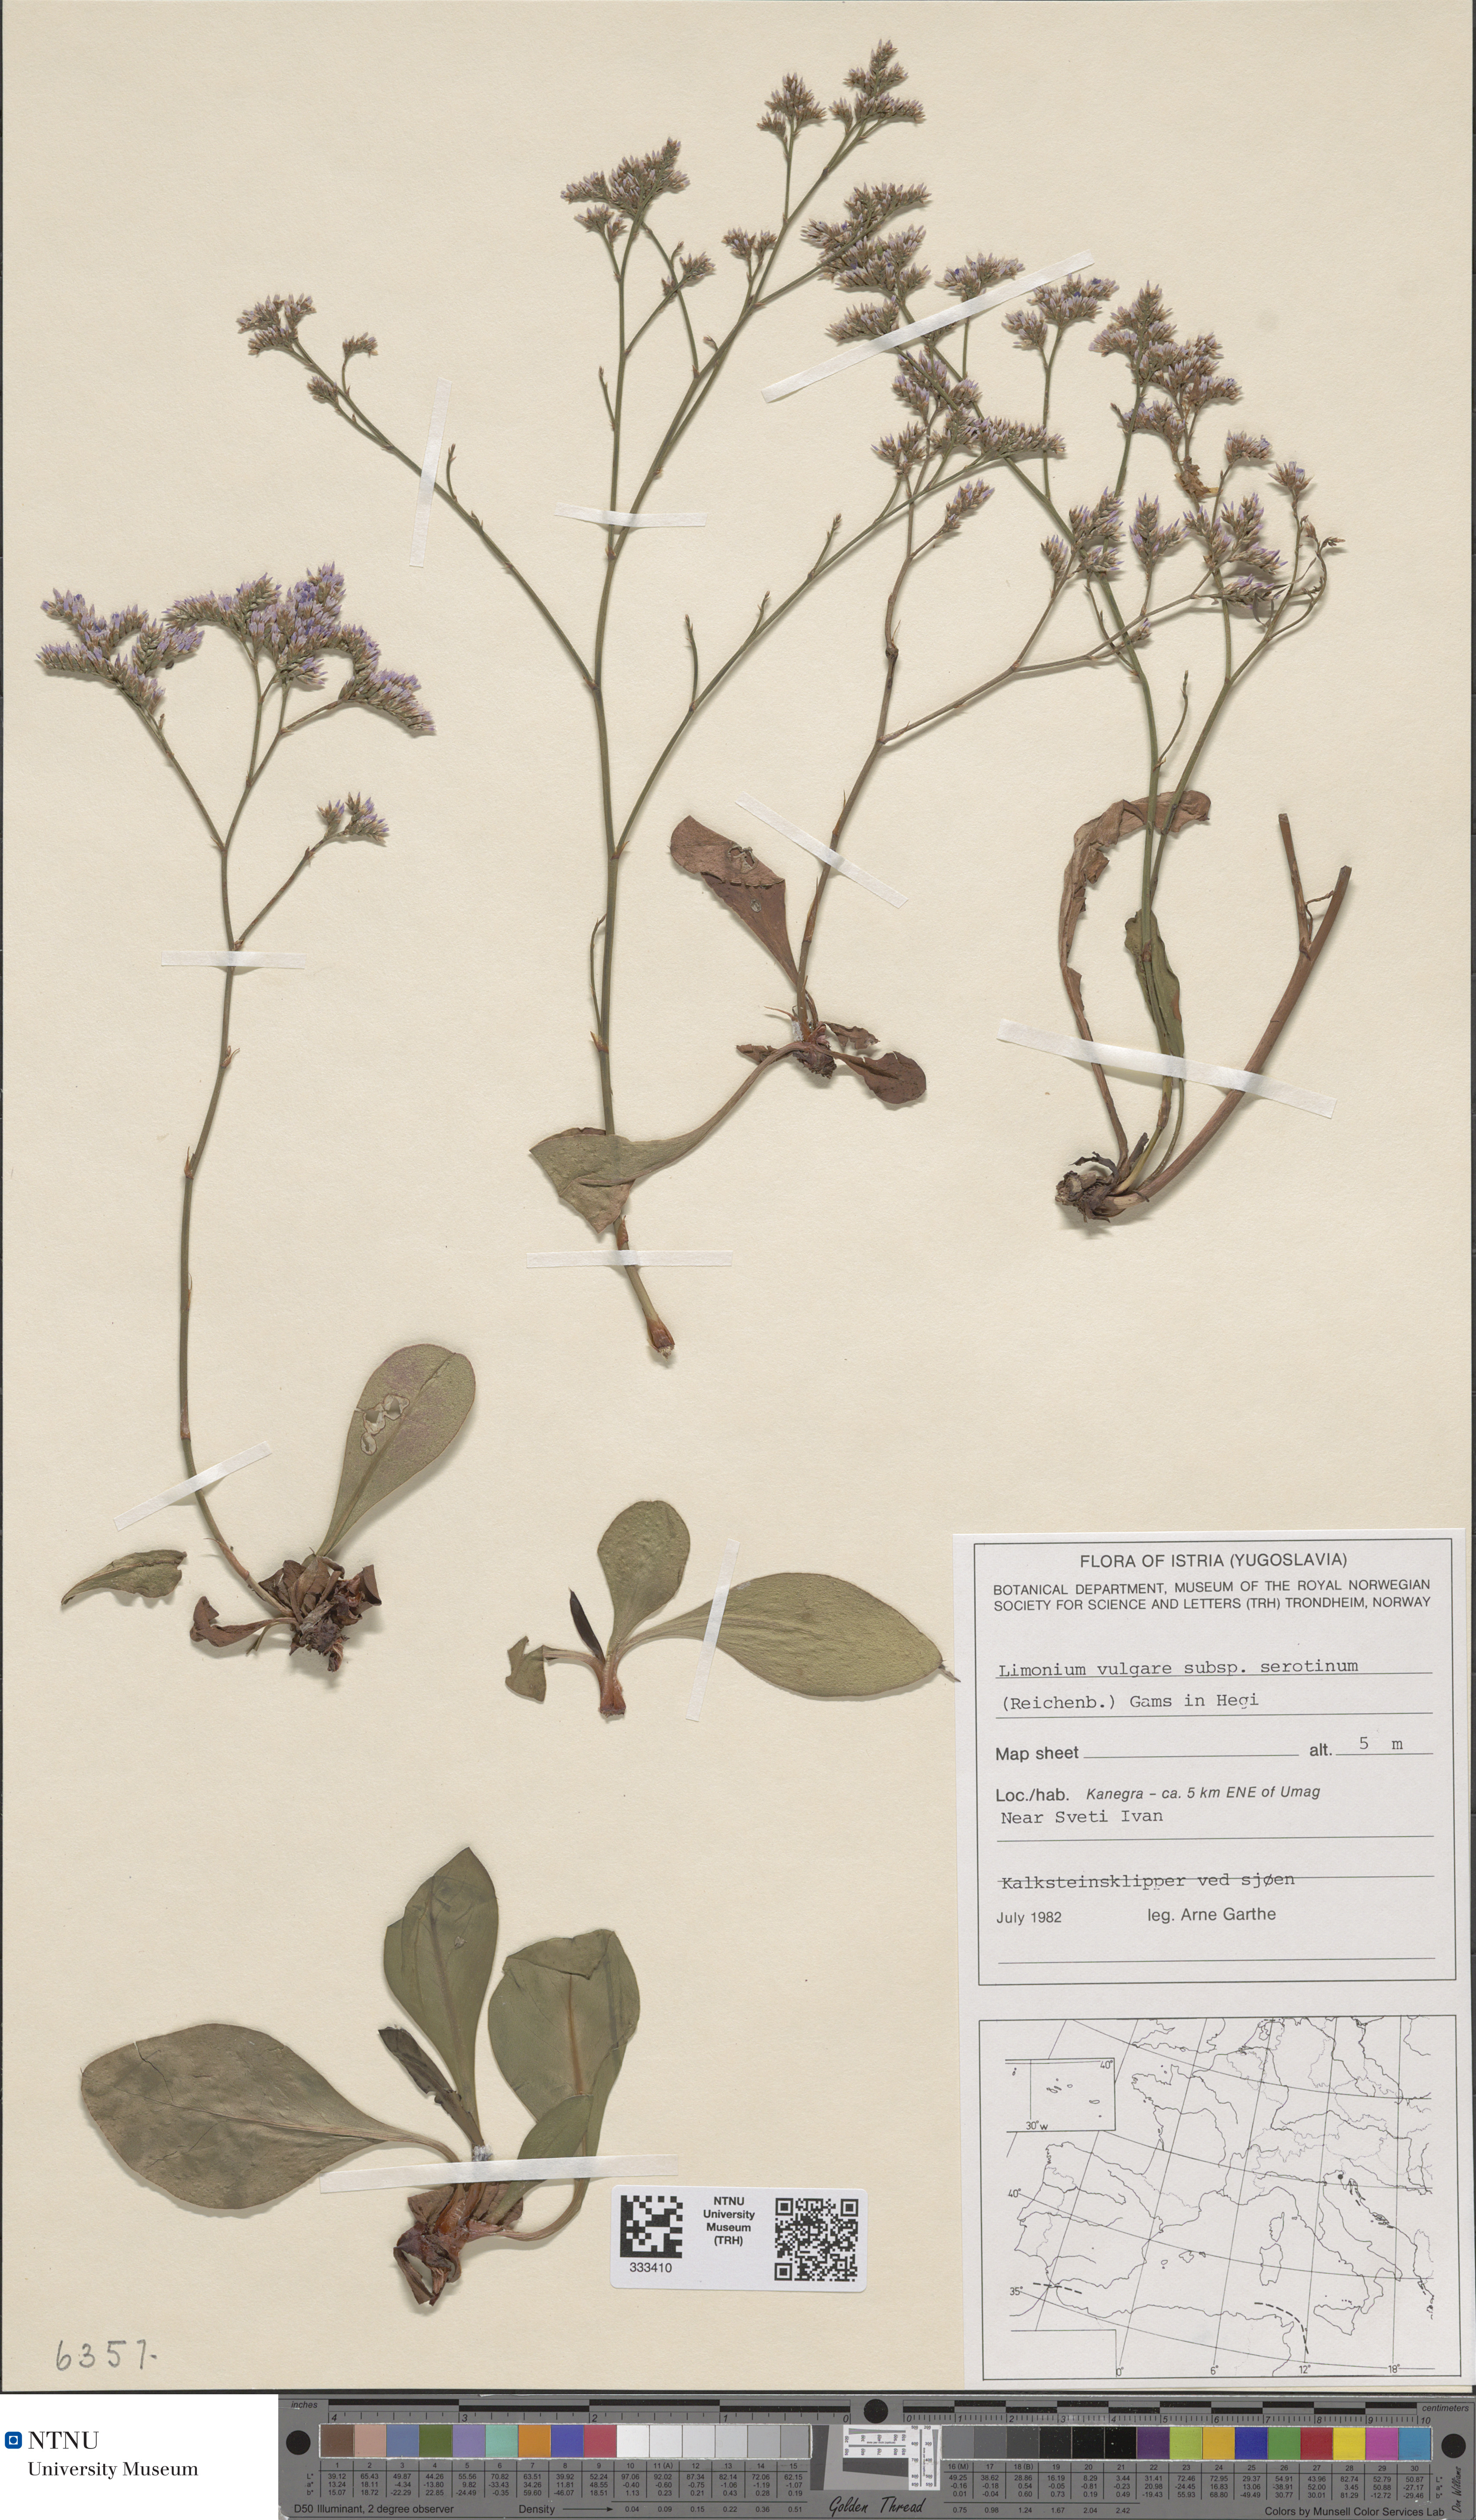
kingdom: Plantae
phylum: Tracheophyta
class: Magnoliopsida
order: Caryophyllales
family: Plumbaginaceae
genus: Limonium
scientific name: Limonium vulgare
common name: Common sea-lavender
